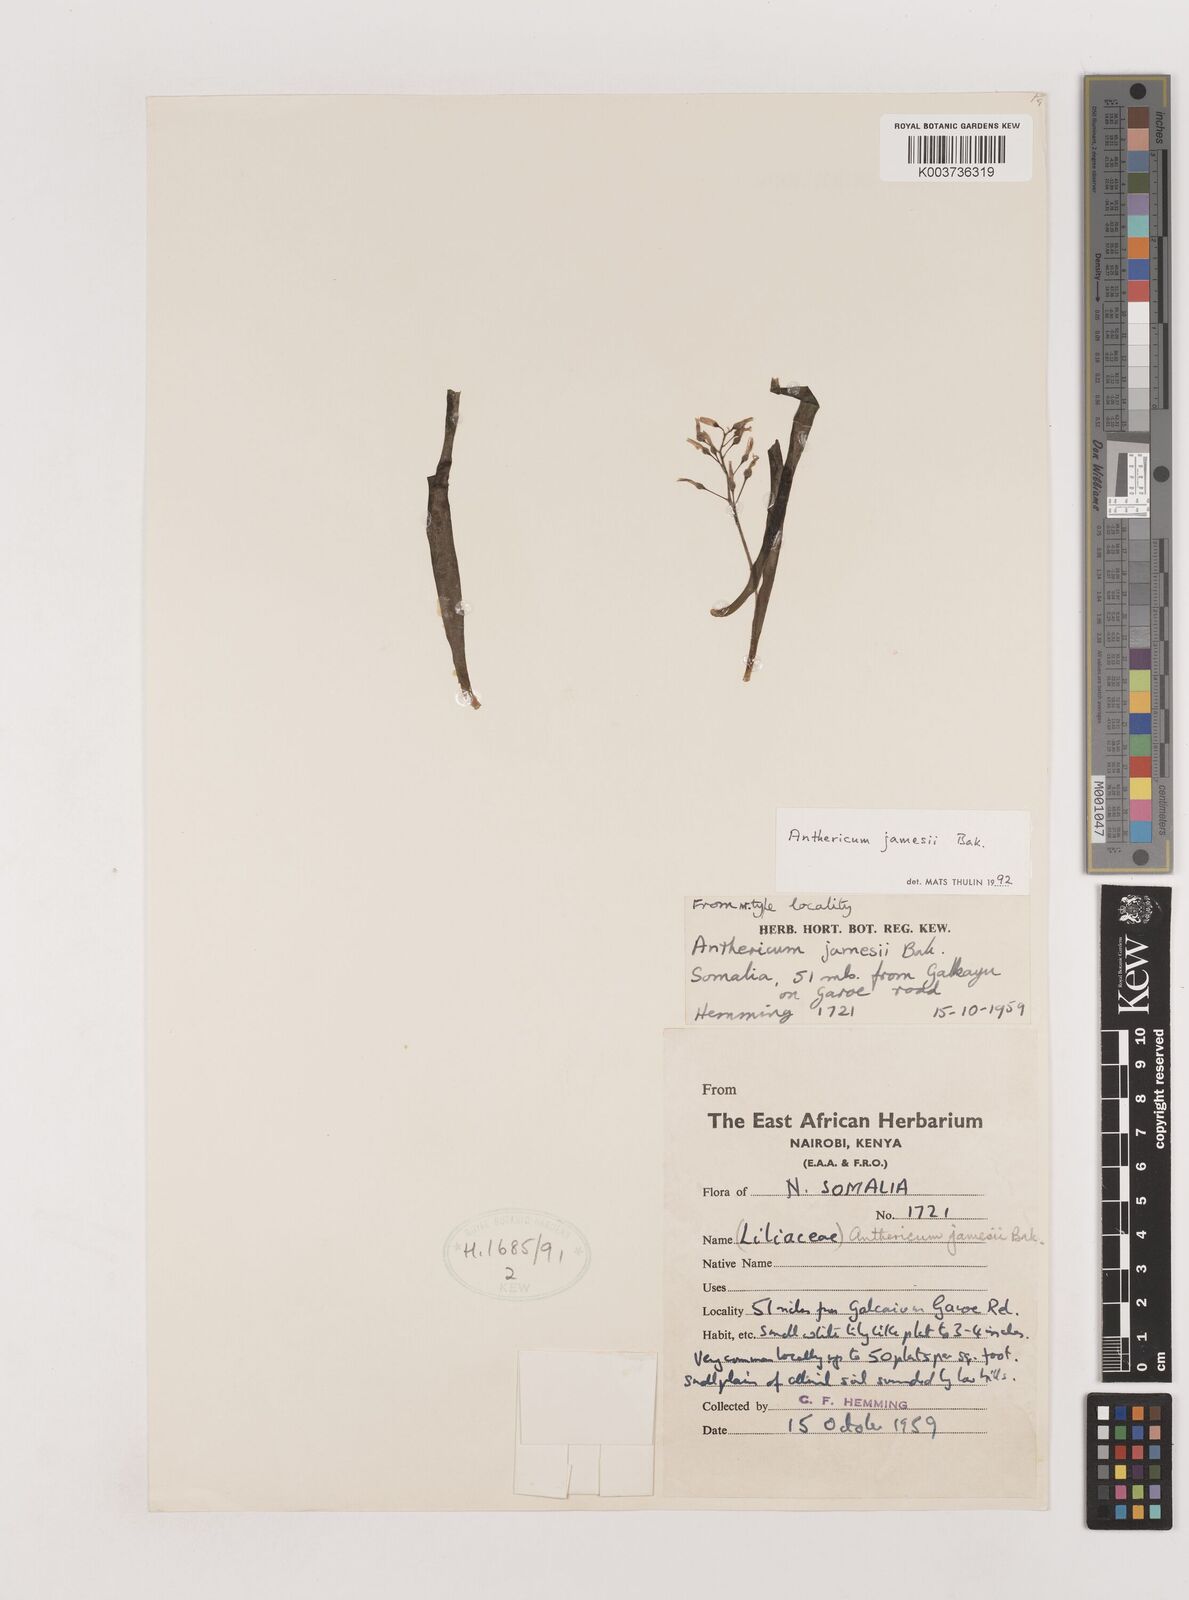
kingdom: Plantae
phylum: Tracheophyta
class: Liliopsida
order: Asparagales
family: Asparagaceae
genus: Anthericum
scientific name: Anthericum jamesii
